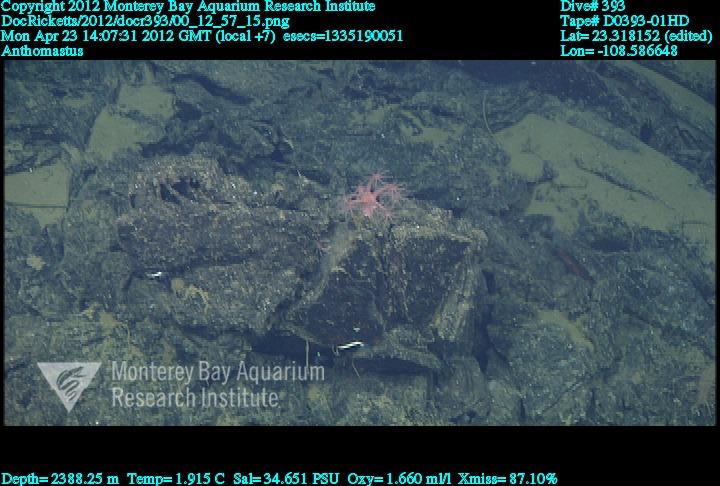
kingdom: Animalia
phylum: Cnidaria
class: Anthozoa
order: Scleralcyonacea
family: Coralliidae
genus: Heteropolypus
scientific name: Heteropolypus
